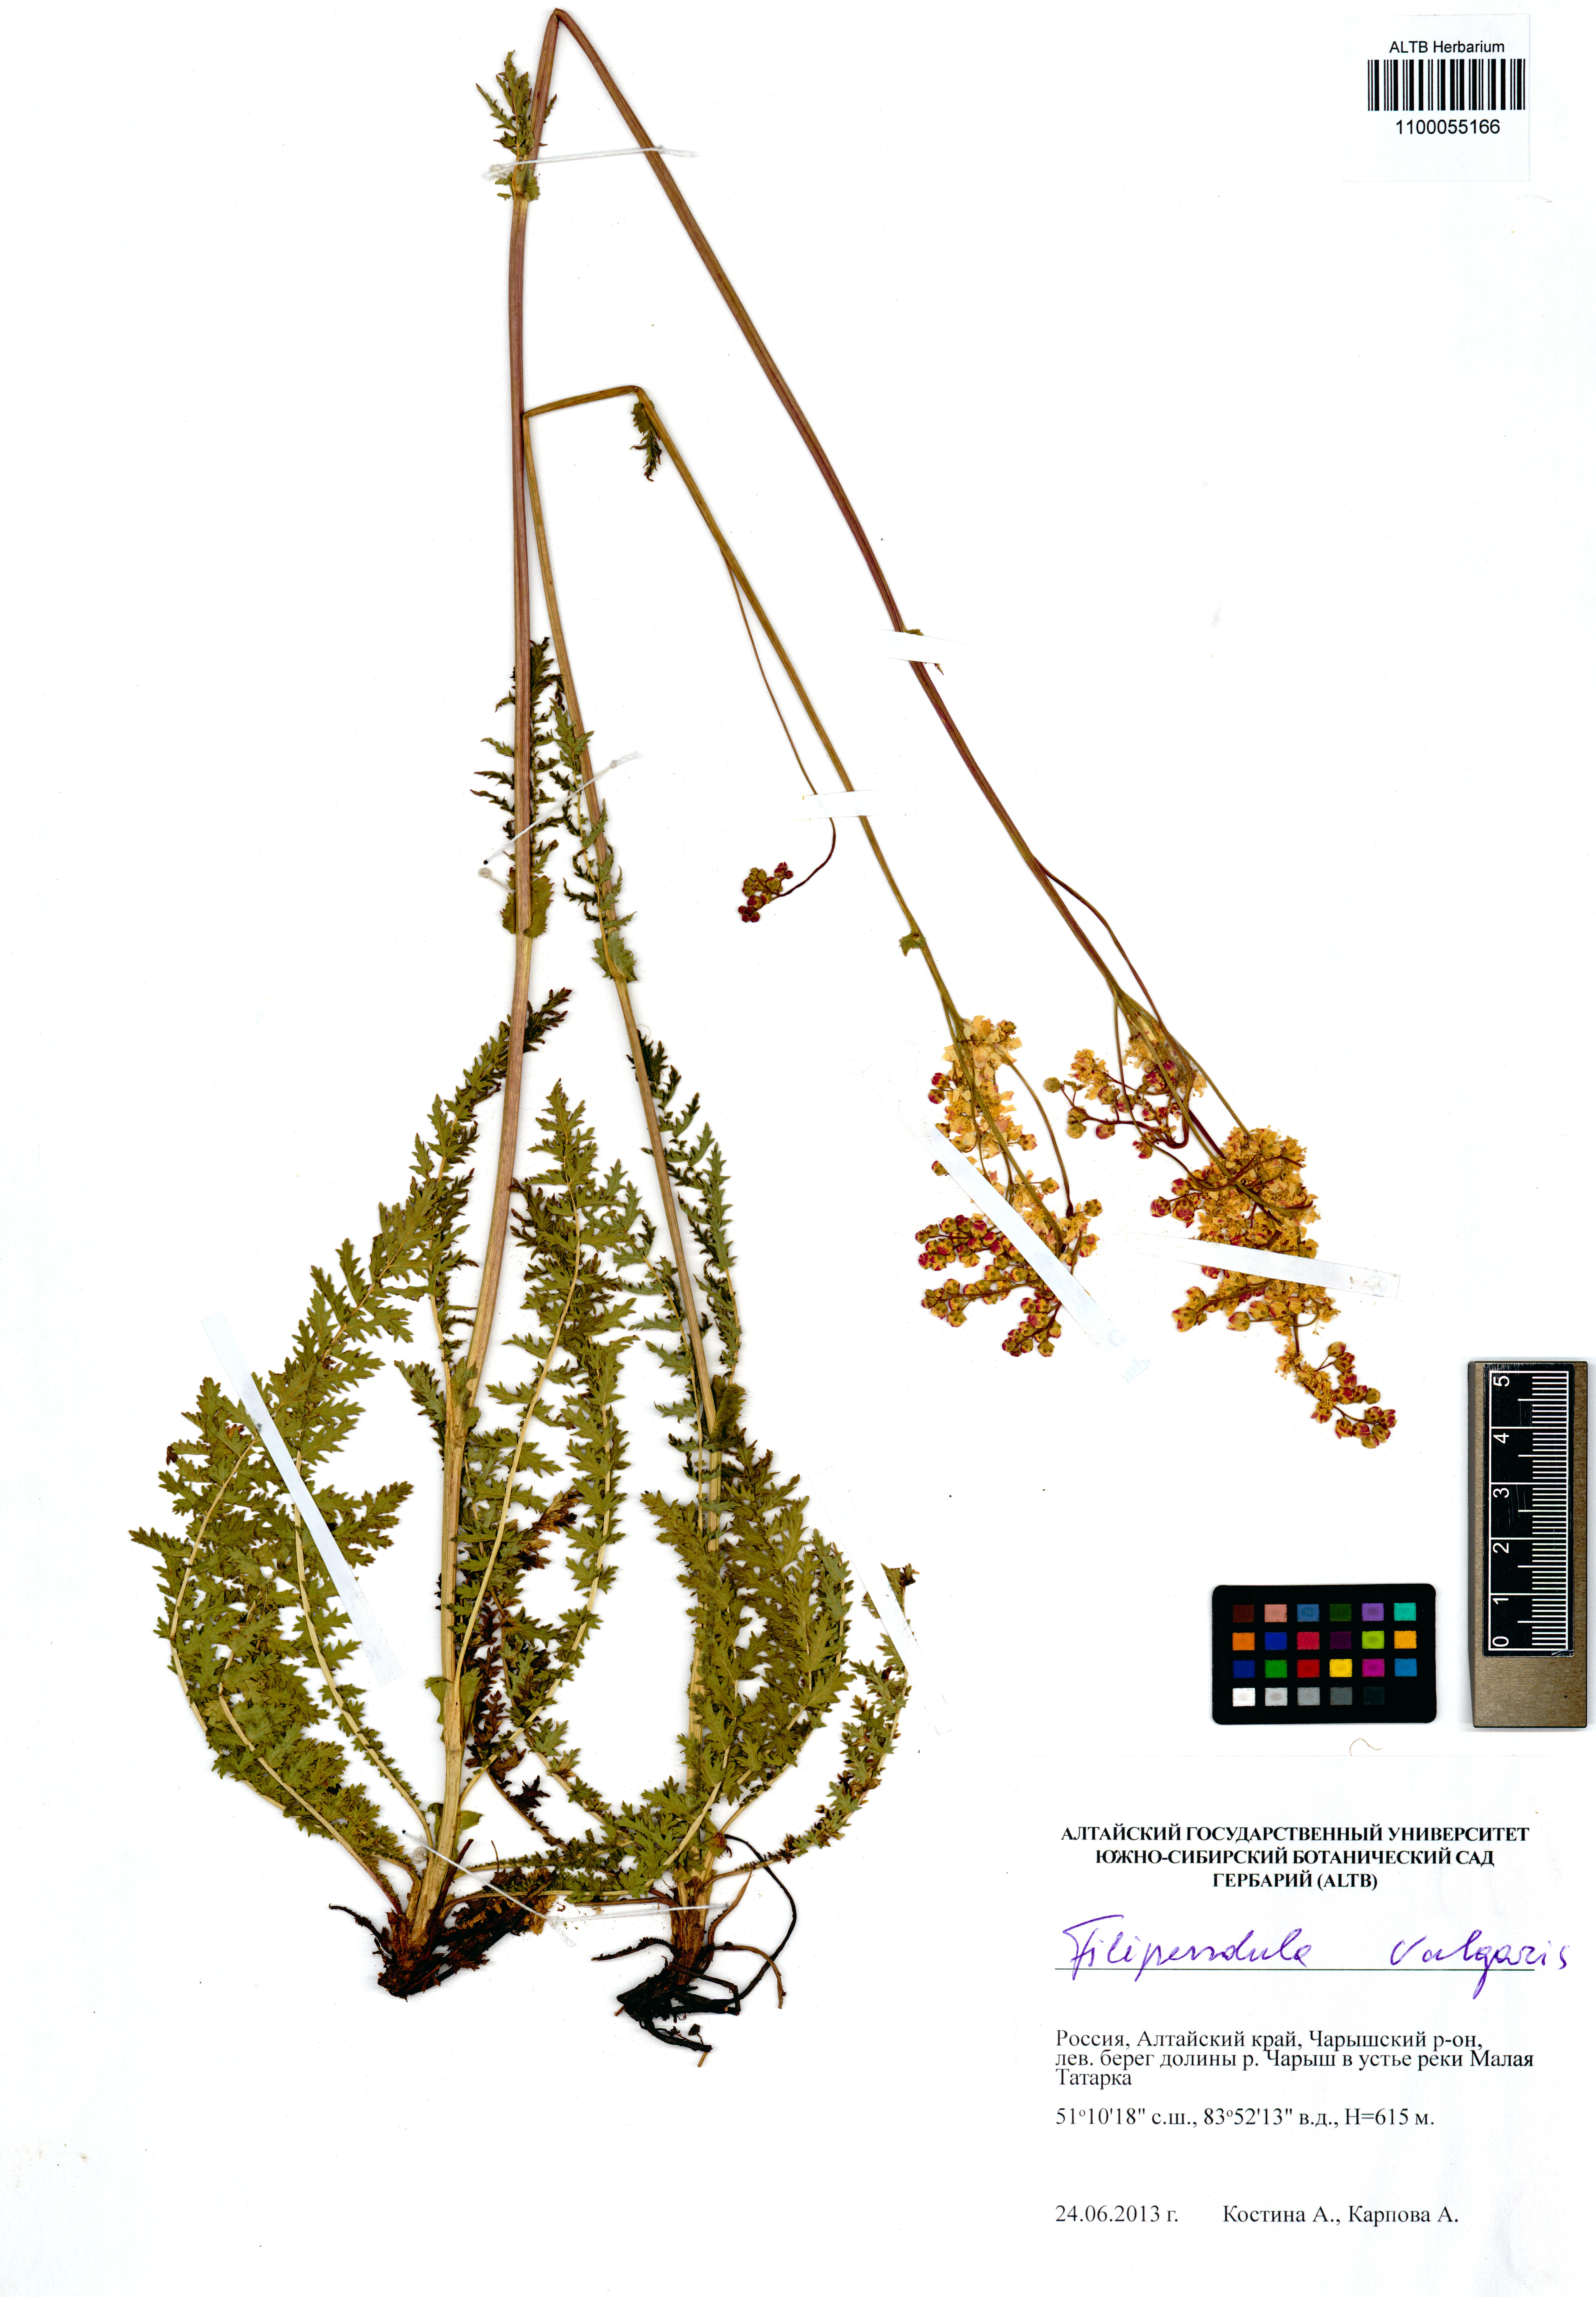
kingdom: Plantae
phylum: Tracheophyta
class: Magnoliopsida
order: Rosales
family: Rosaceae
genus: Filipendula
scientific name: Filipendula vulgaris
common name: Dropwort
